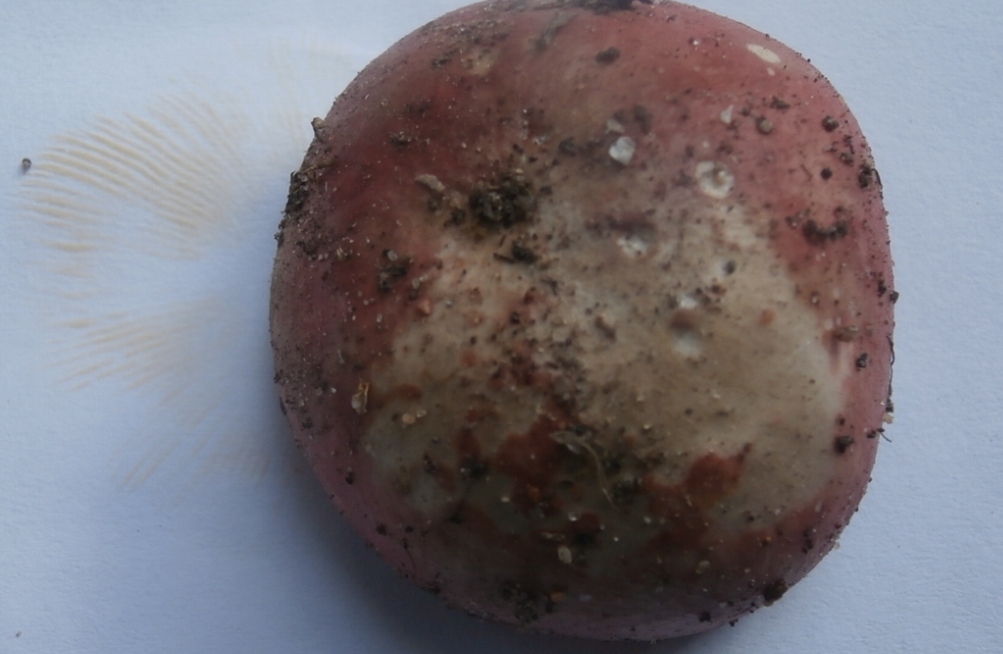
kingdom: Fungi
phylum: Basidiomycota
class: Agaricomycetes
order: Russulales
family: Russulaceae
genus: Russula
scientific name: Russula depallens
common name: falmende skørhat
